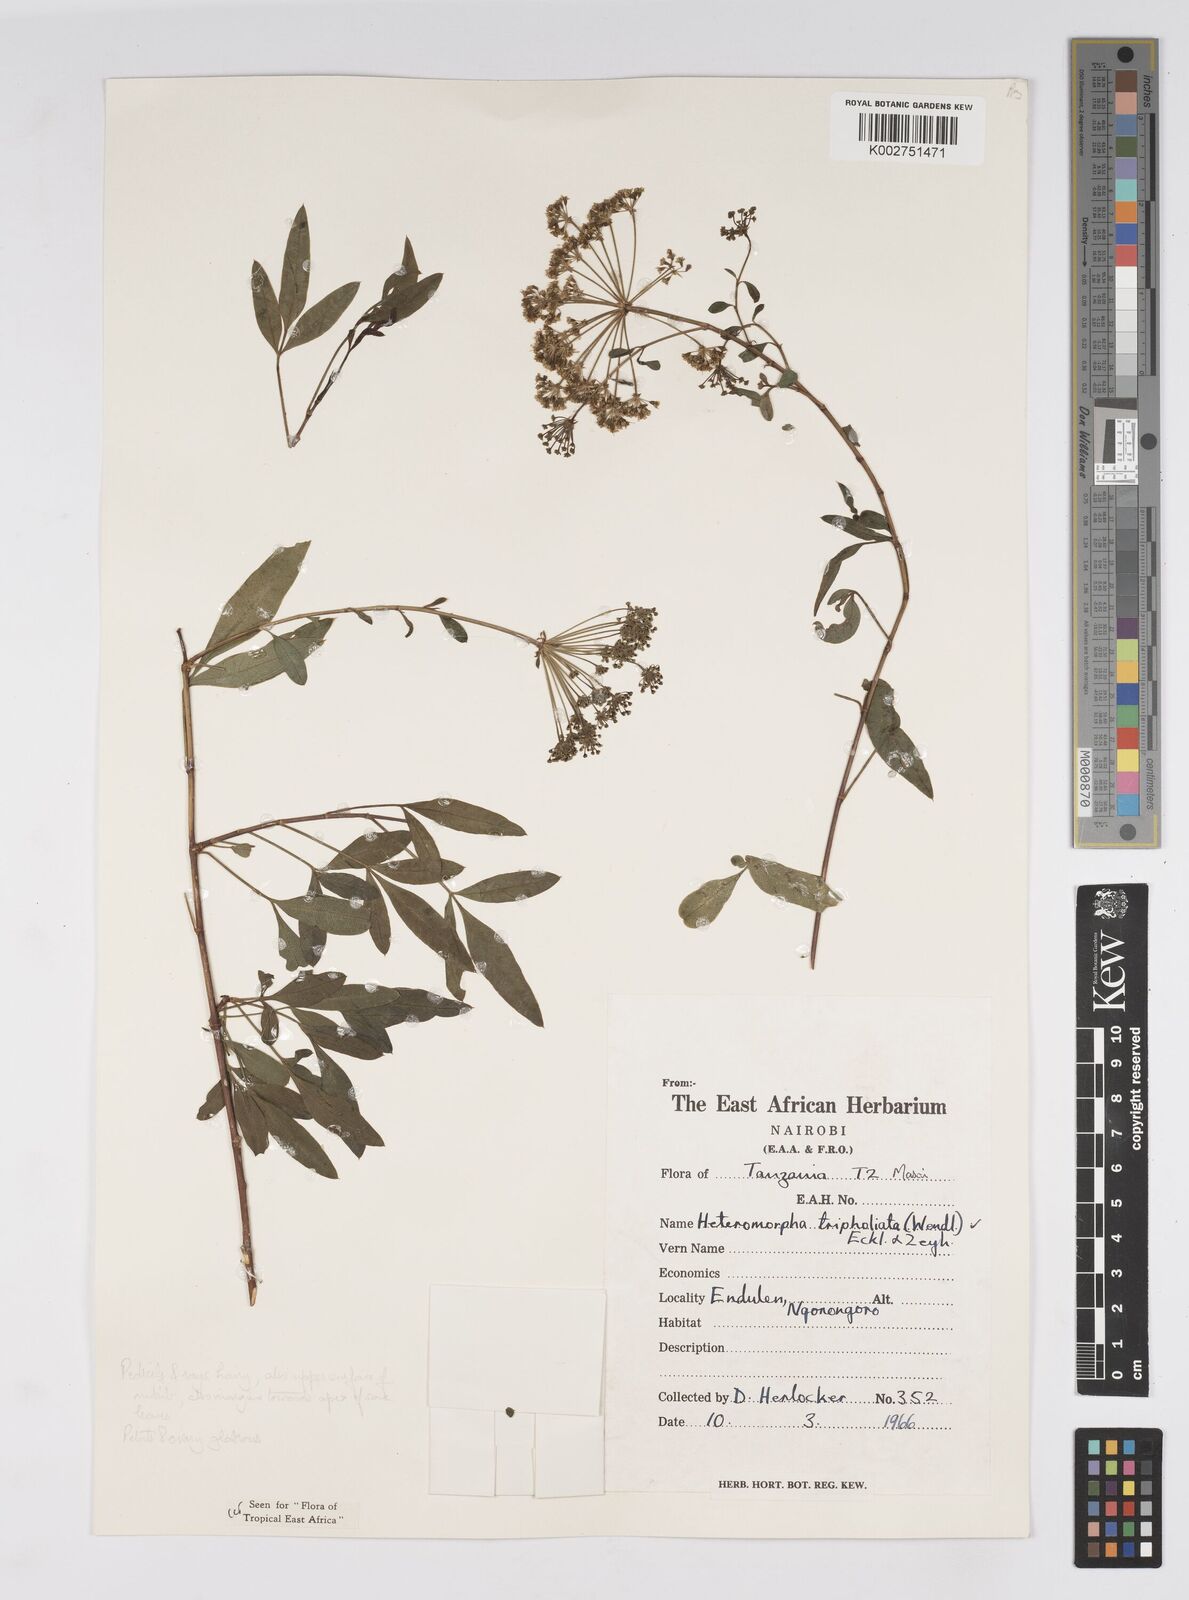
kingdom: Plantae
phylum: Tracheophyta
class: Magnoliopsida
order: Apiales
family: Apiaceae
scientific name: Apiaceae
